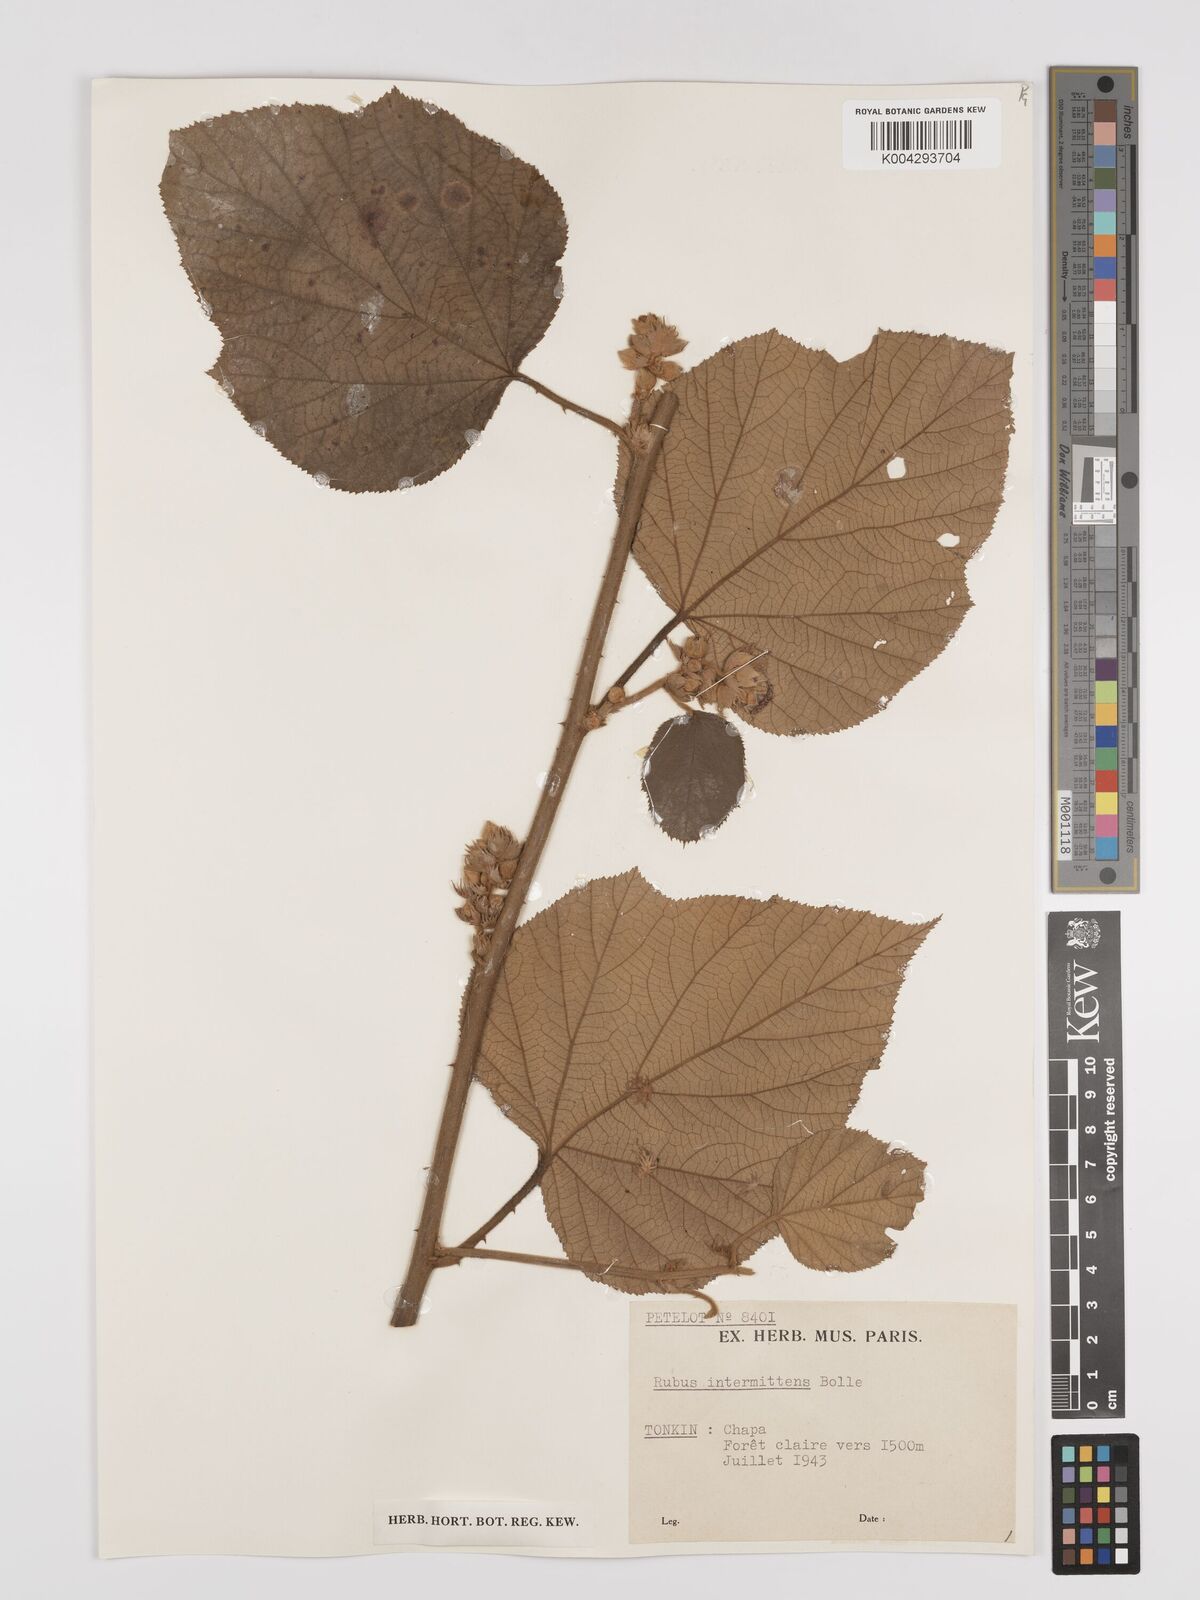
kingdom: Plantae
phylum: Tracheophyta
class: Magnoliopsida
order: Rosales
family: Rosaceae
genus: Rubus
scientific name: Rubus intermittens
